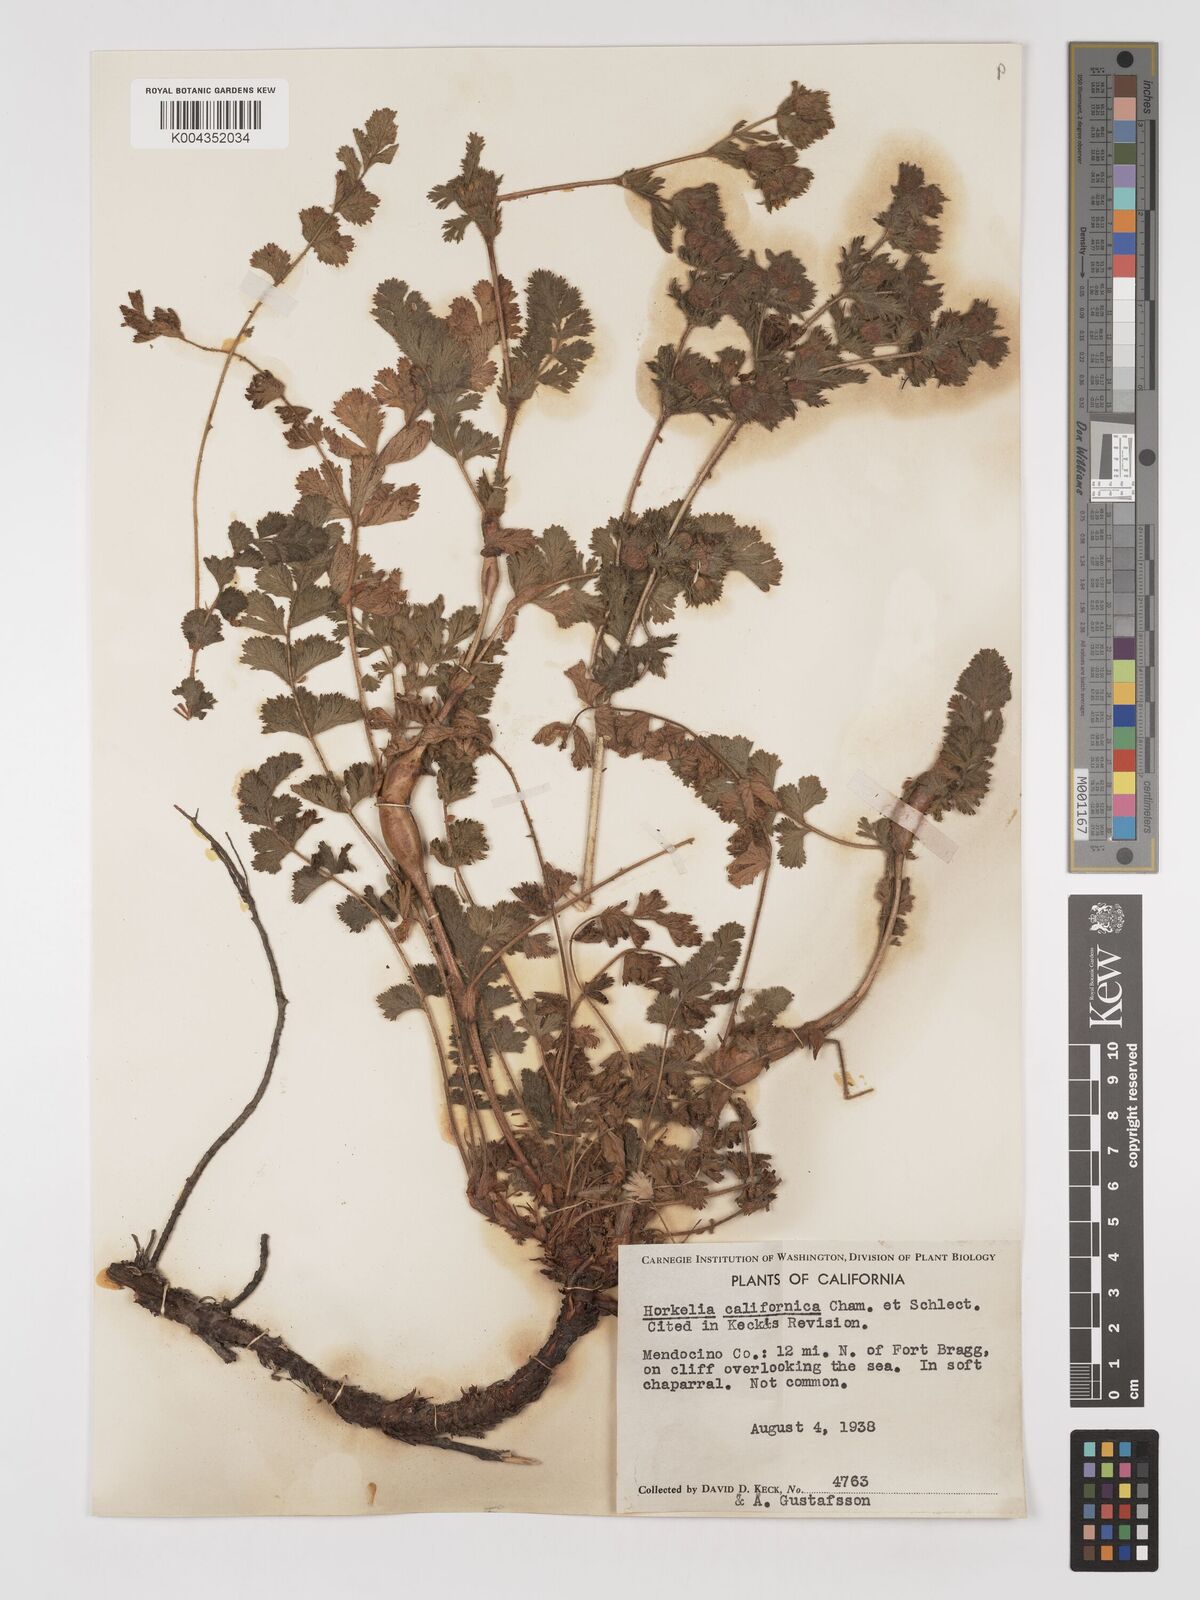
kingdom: Plantae
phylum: Tracheophyta
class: Magnoliopsida
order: Rosales
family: Rosaceae
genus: Potentilla
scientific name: Potentilla californica
